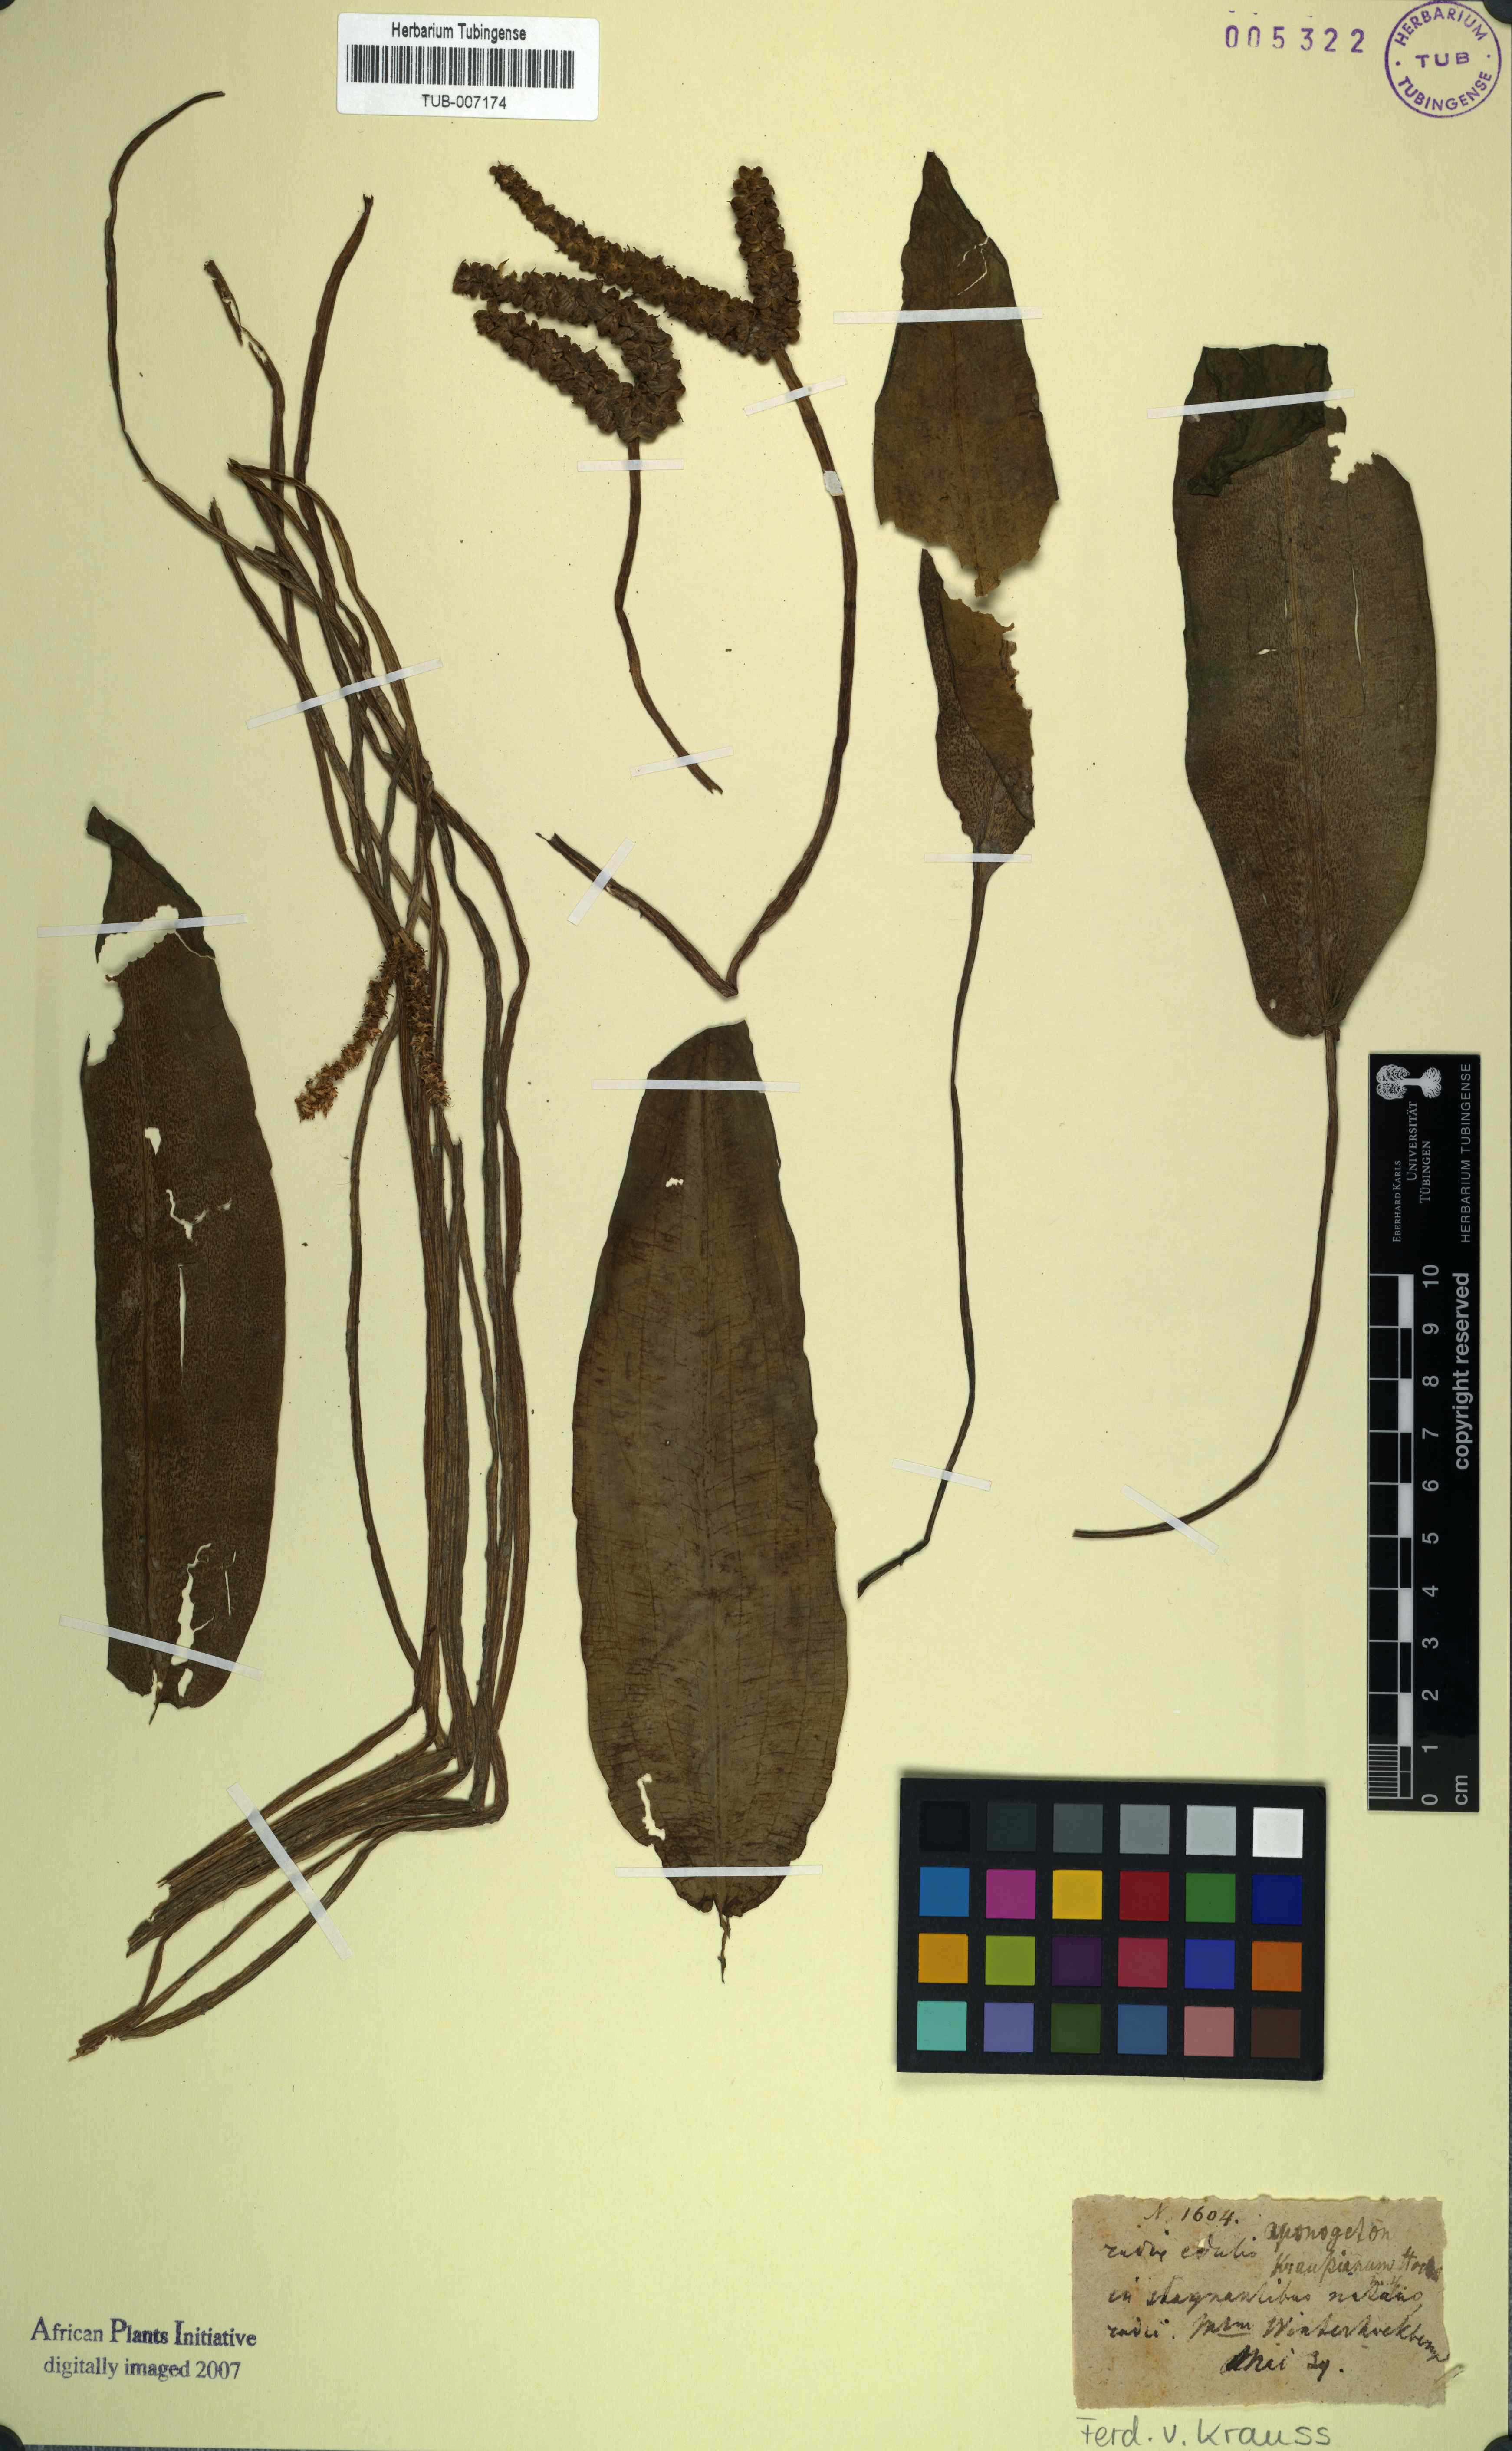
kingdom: Plantae
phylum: Tracheophyta
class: Liliopsida
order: Alismatales
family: Aponogetonaceae
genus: Aponogeton
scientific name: Aponogeton desertorum
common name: Dog-with-two-tails
